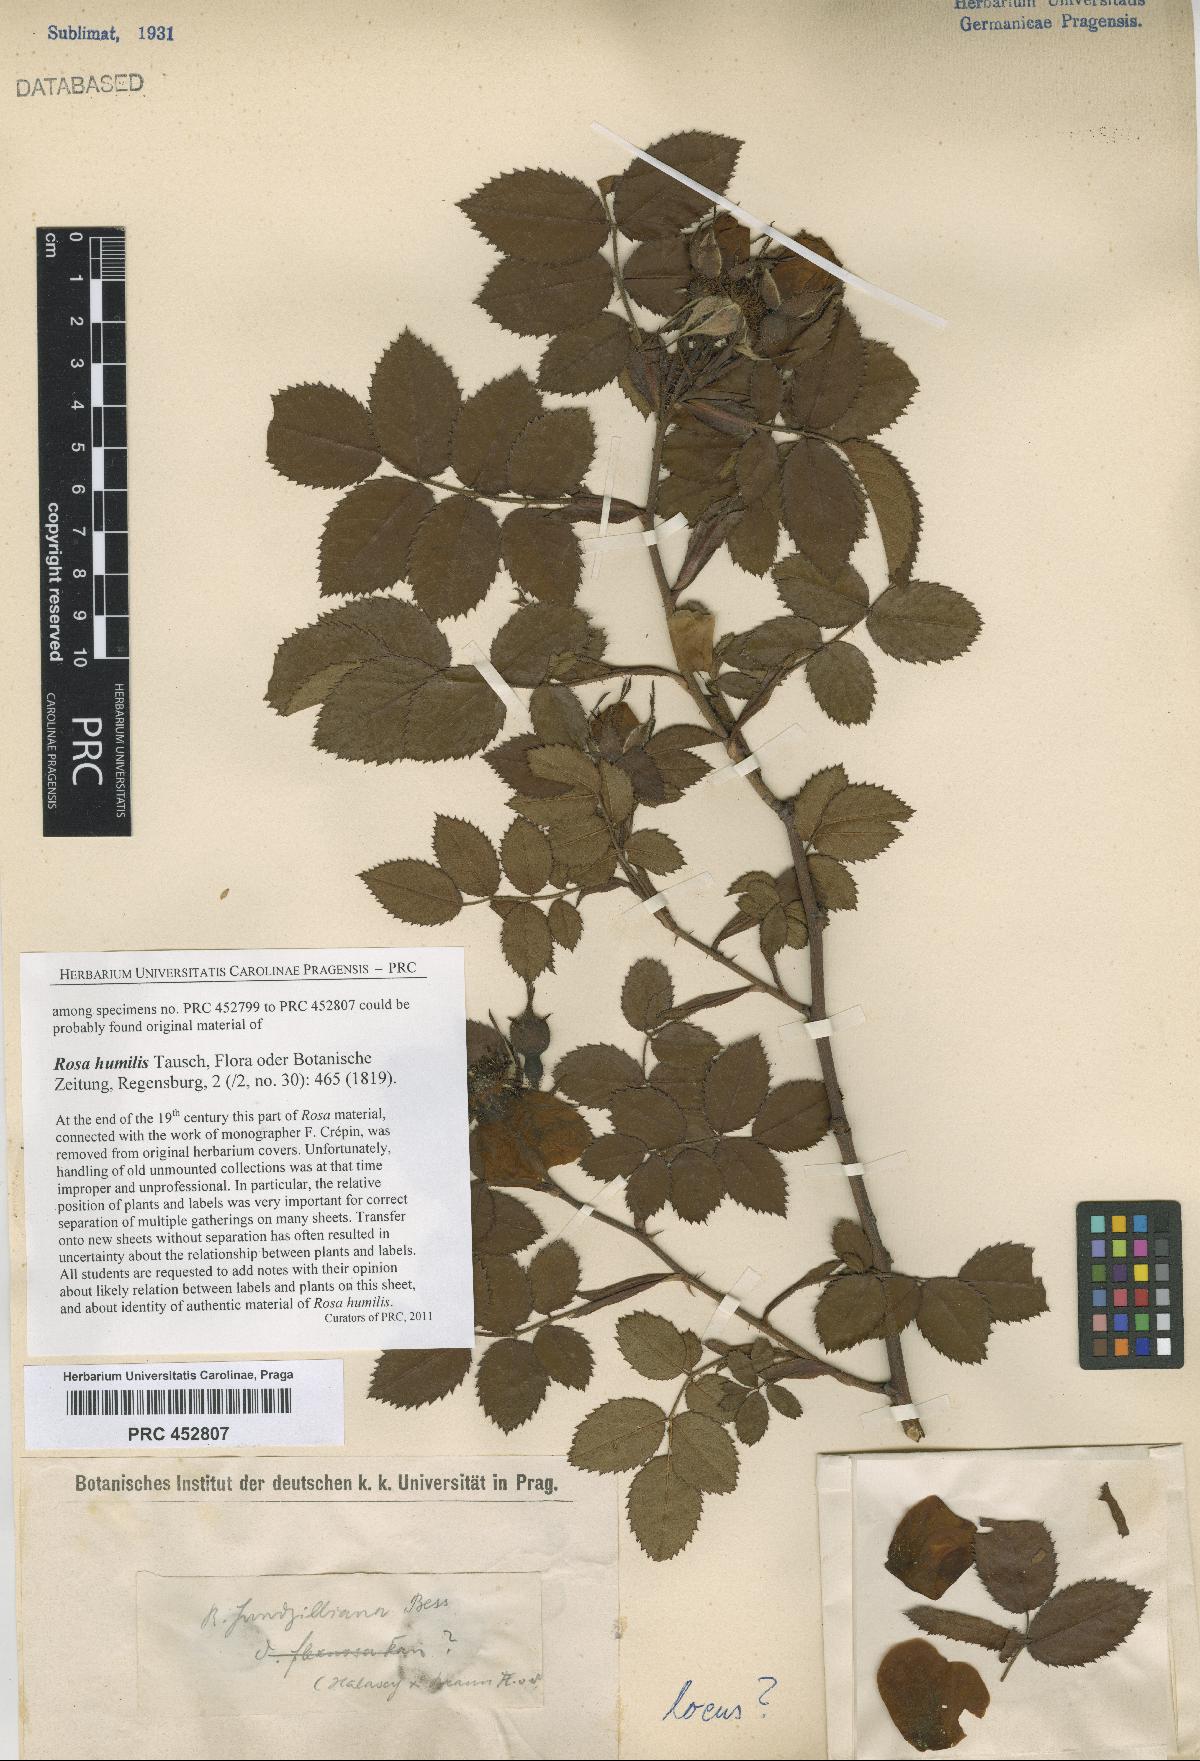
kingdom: Plantae
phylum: Tracheophyta
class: Magnoliopsida
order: Rosales
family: Rosaceae
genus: Rosa
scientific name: Rosa marginata
